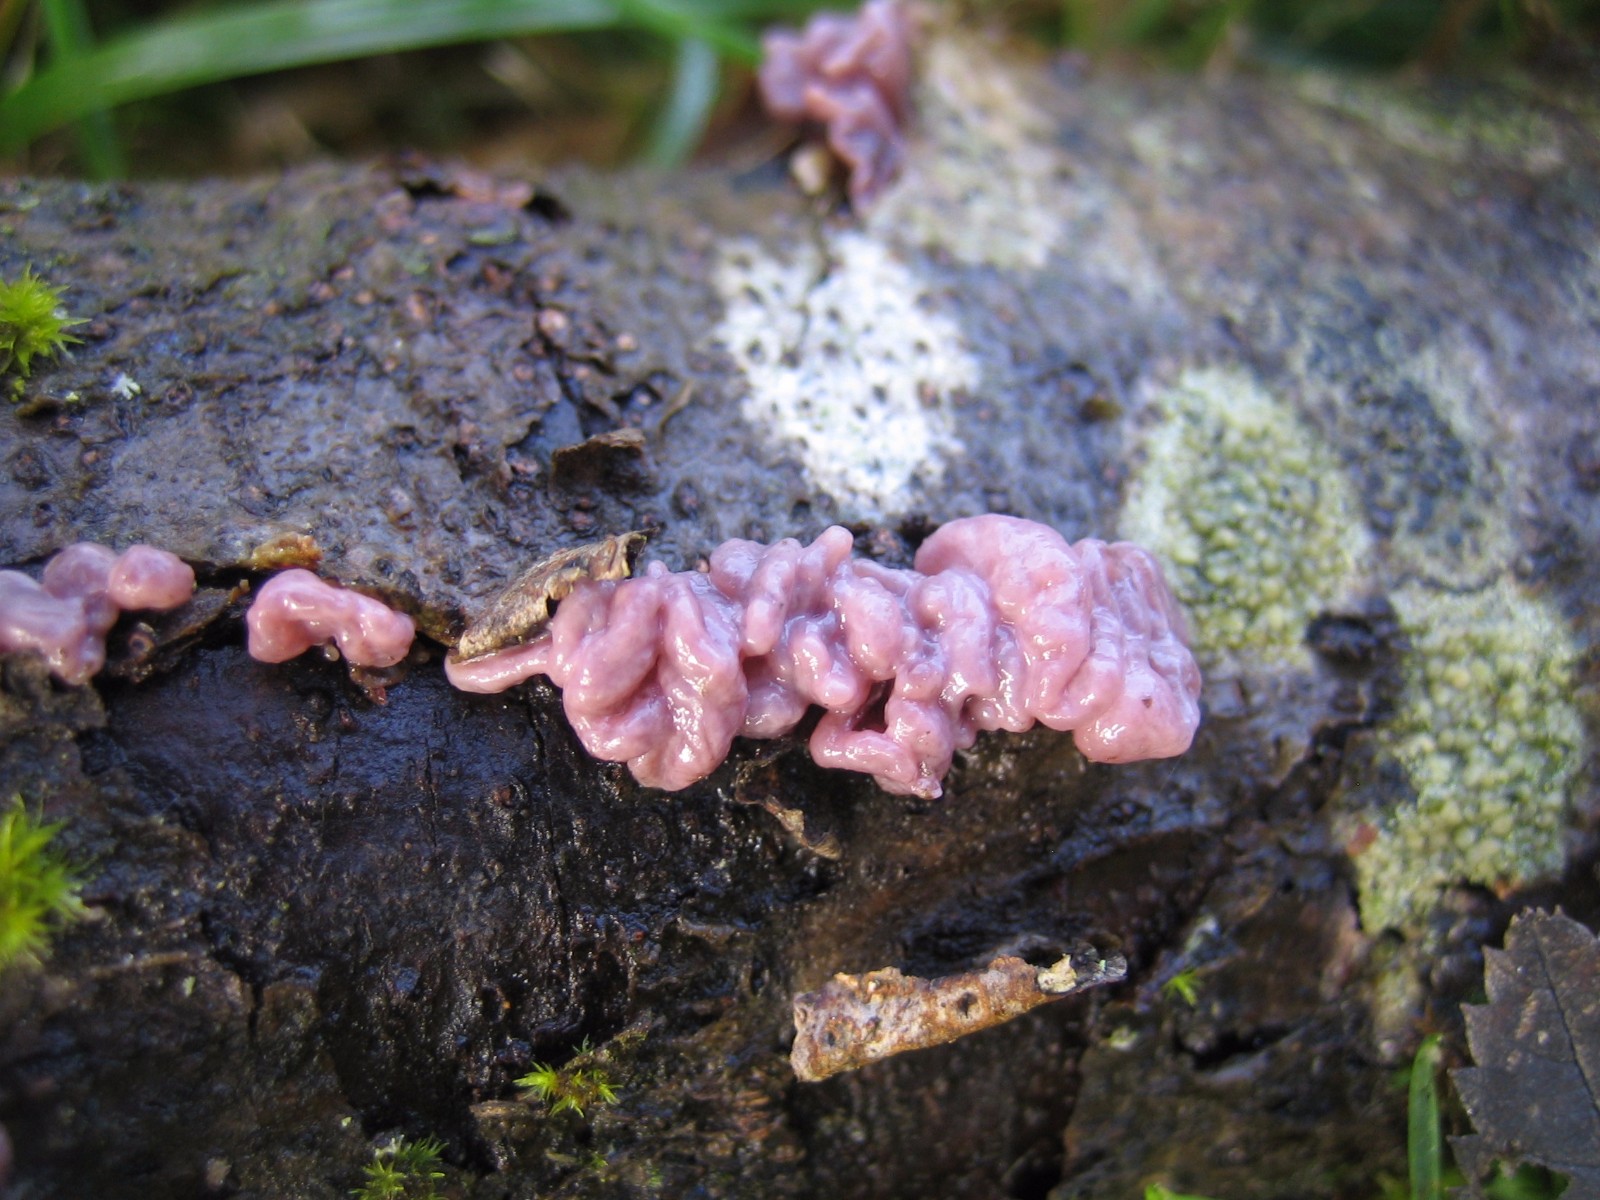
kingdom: Fungi
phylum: Ascomycota
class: Leotiomycetes
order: Helotiales
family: Gelatinodiscaceae
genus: Ascocoryne
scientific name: Ascocoryne sarcoides
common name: rødlilla sejskive
